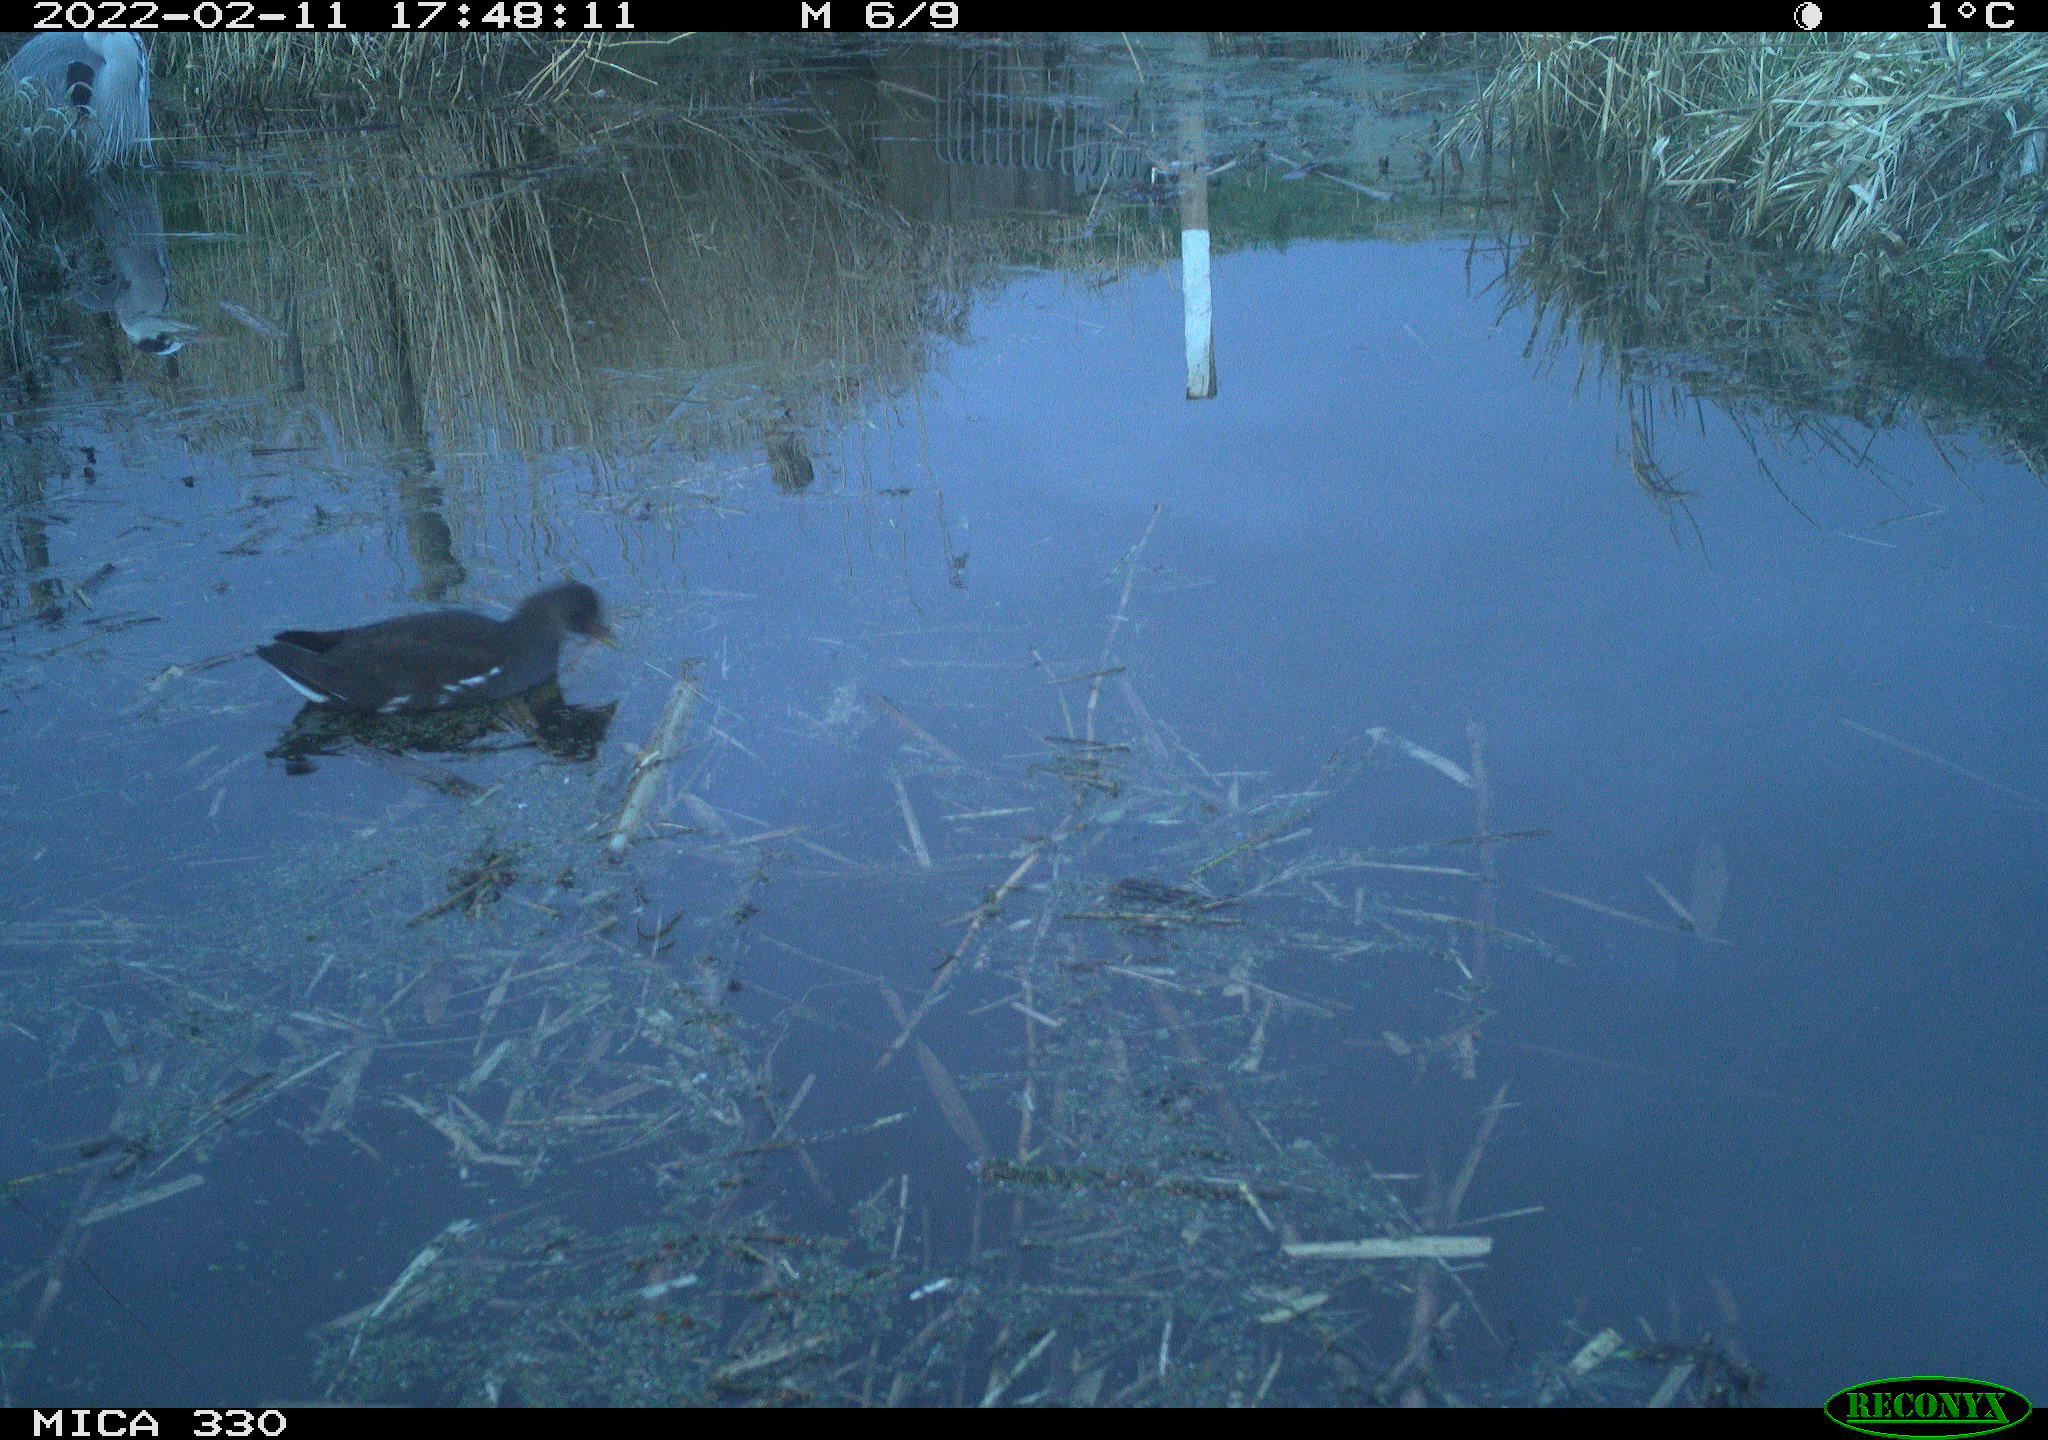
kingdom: Animalia
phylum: Chordata
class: Aves
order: Gruiformes
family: Rallidae
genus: Gallinula
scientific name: Gallinula chloropus
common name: Common moorhen
